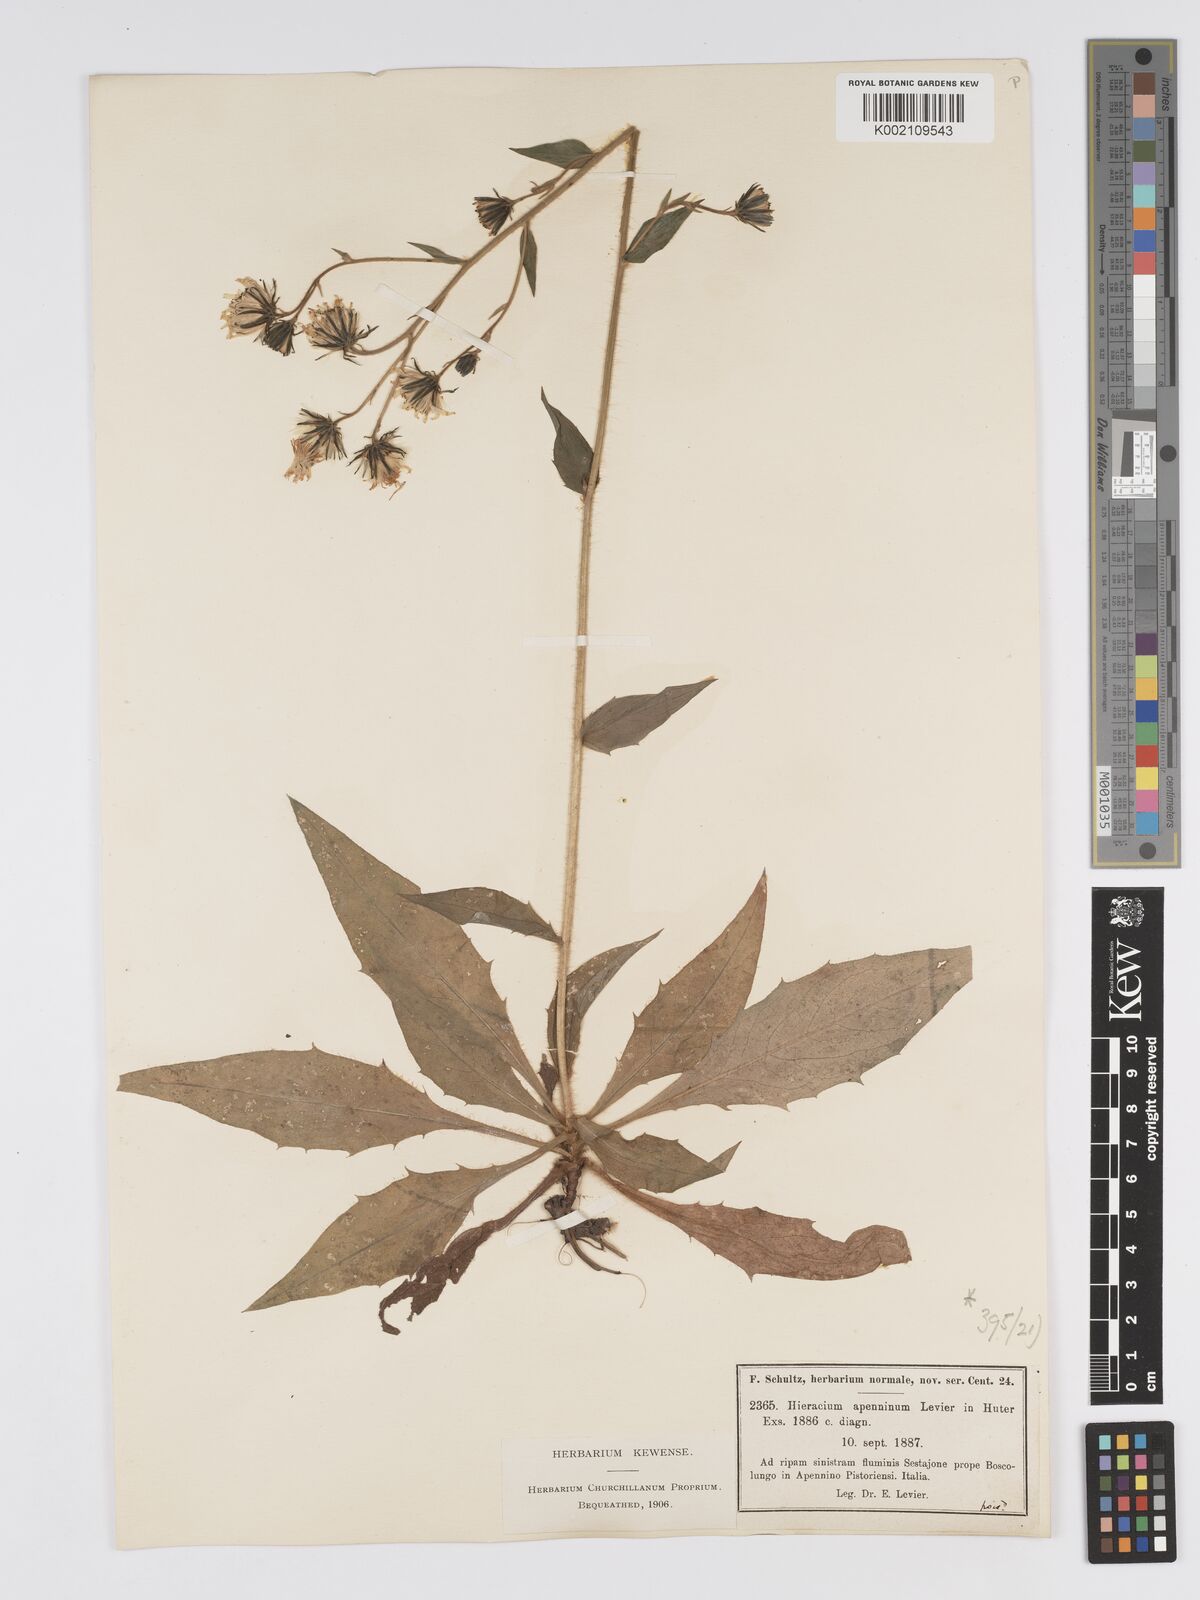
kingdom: Plantae
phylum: Tracheophyta
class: Magnoliopsida
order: Asterales
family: Asteraceae
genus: Hieracium
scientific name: Hieracium racemosum
